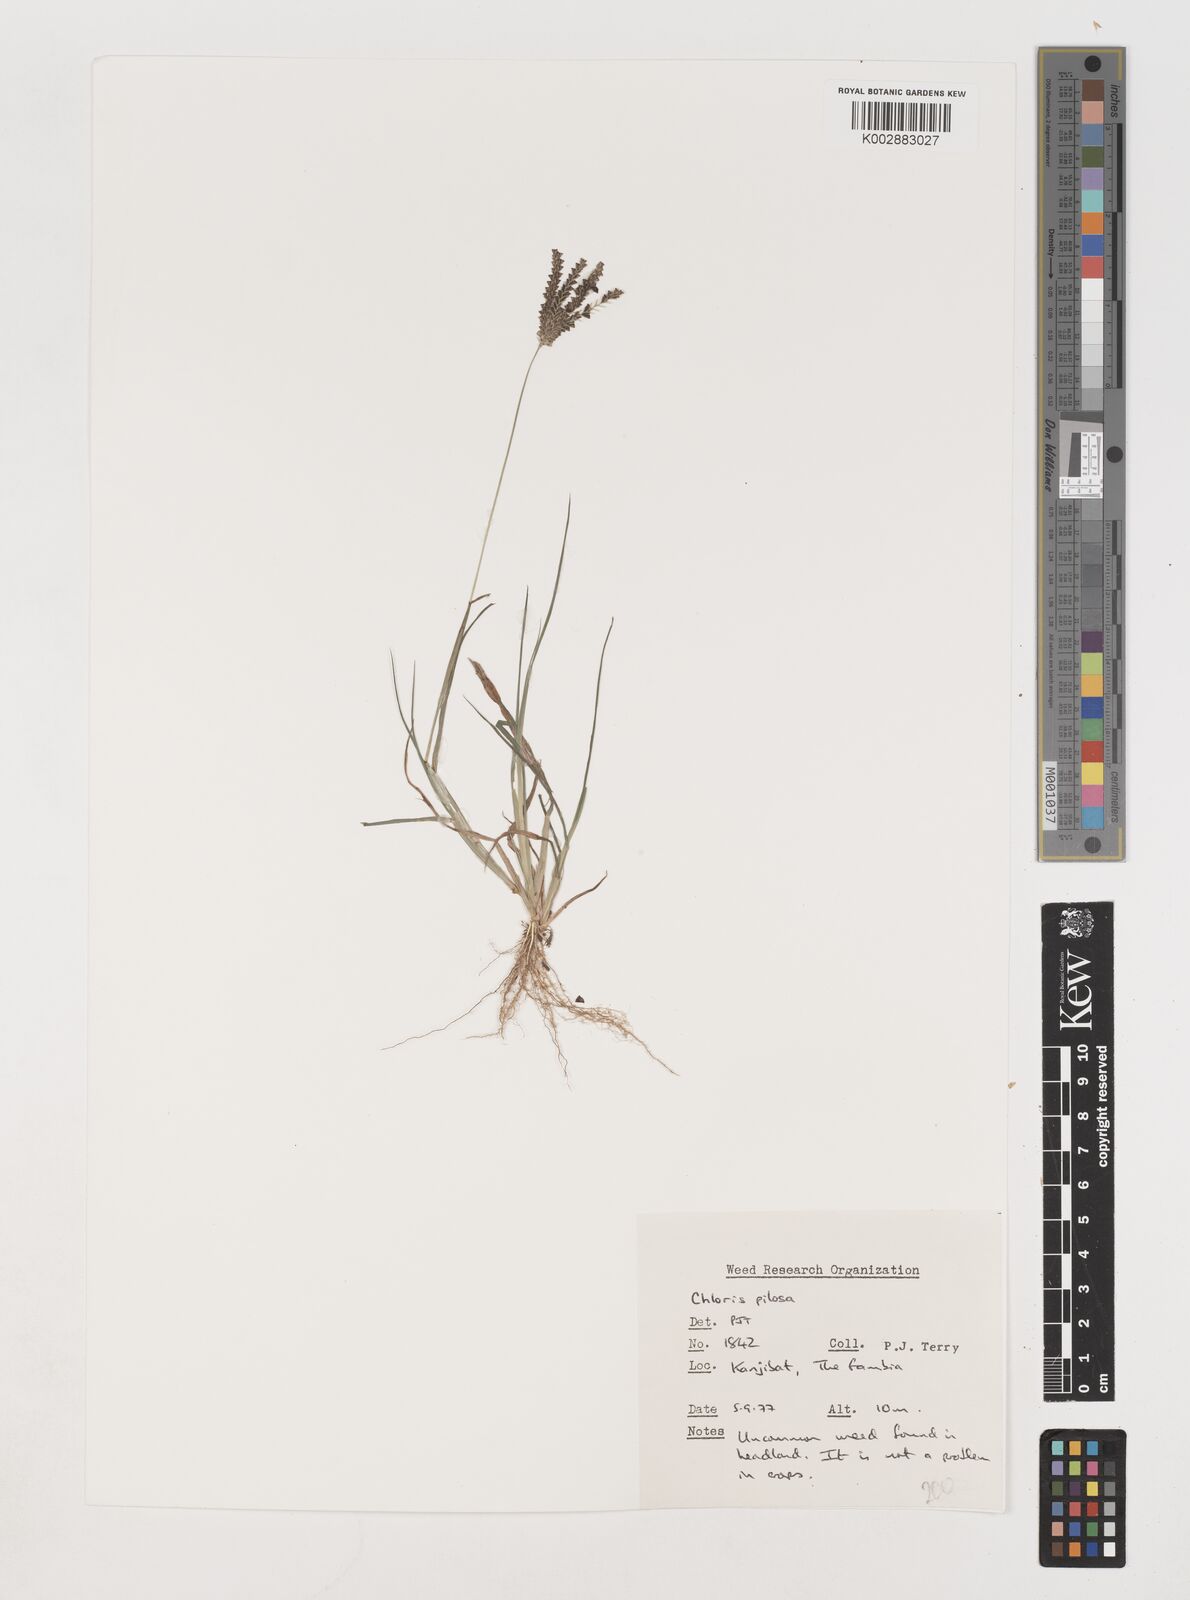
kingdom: Plantae
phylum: Tracheophyta
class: Liliopsida
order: Poales
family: Poaceae
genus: Chloris
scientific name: Chloris pilosa
